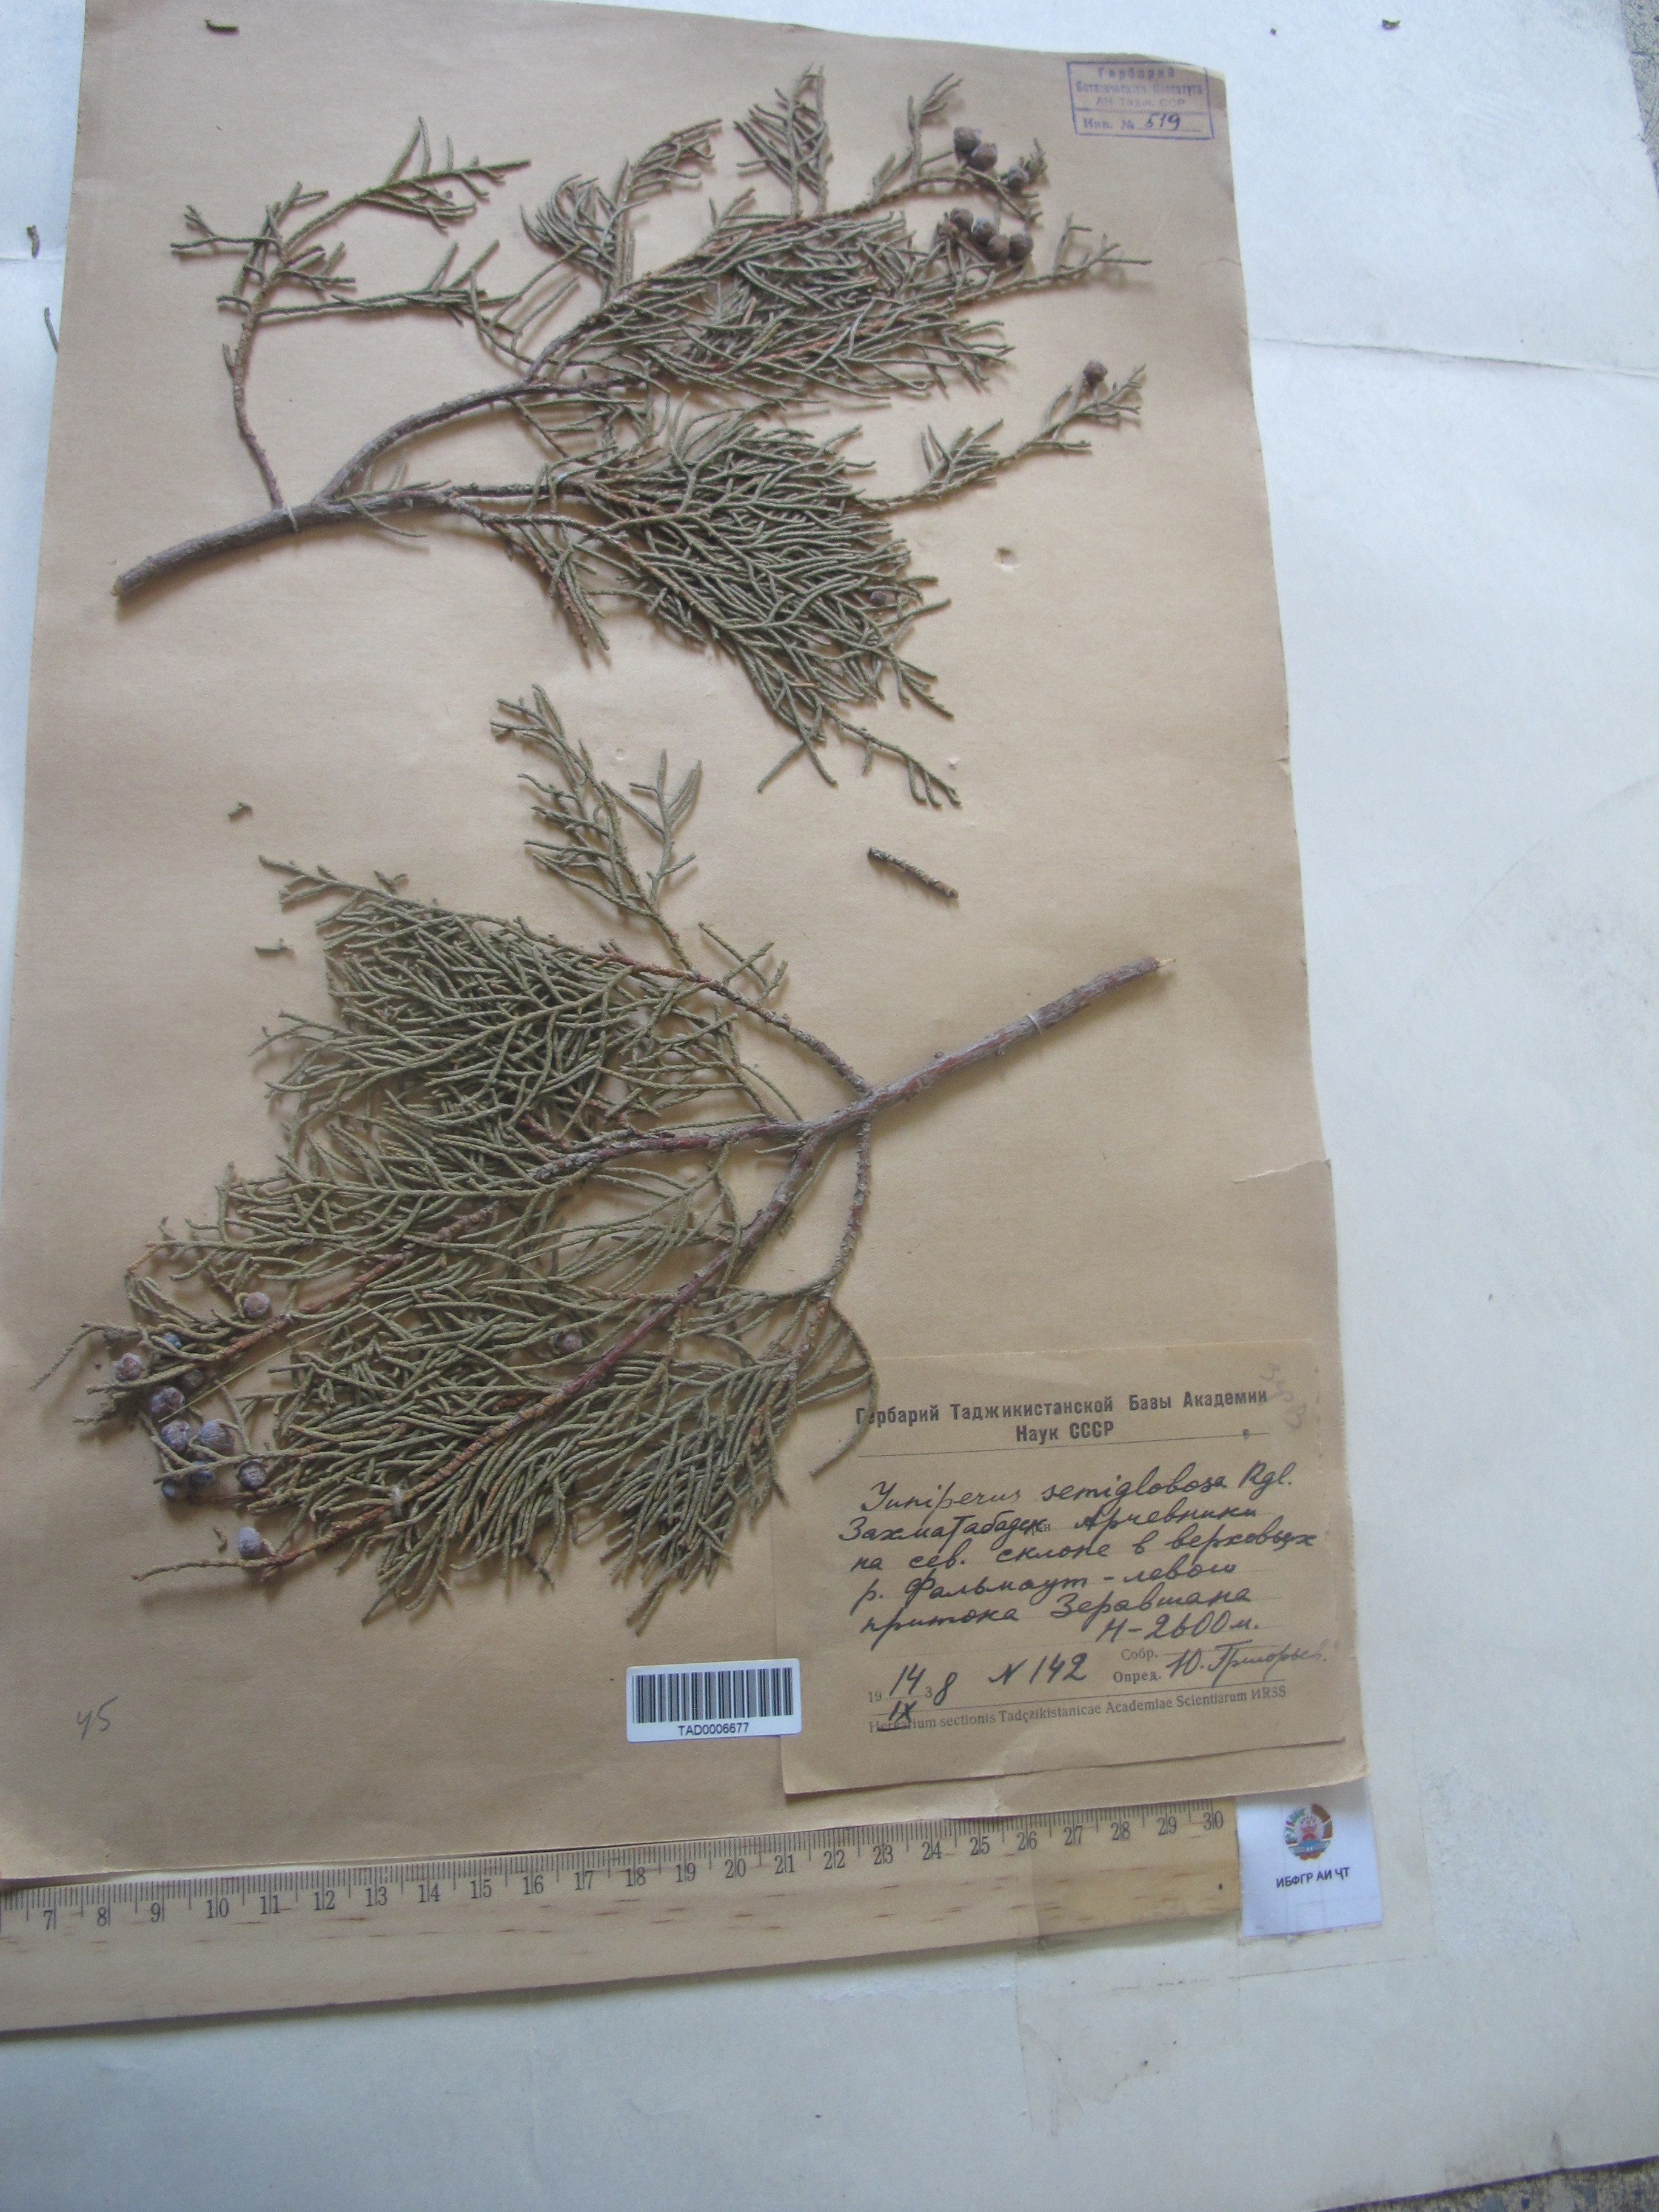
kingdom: Plantae
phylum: Tracheophyta
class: Pinopsida
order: Pinales
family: Cupressaceae
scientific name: Cupressaceae
